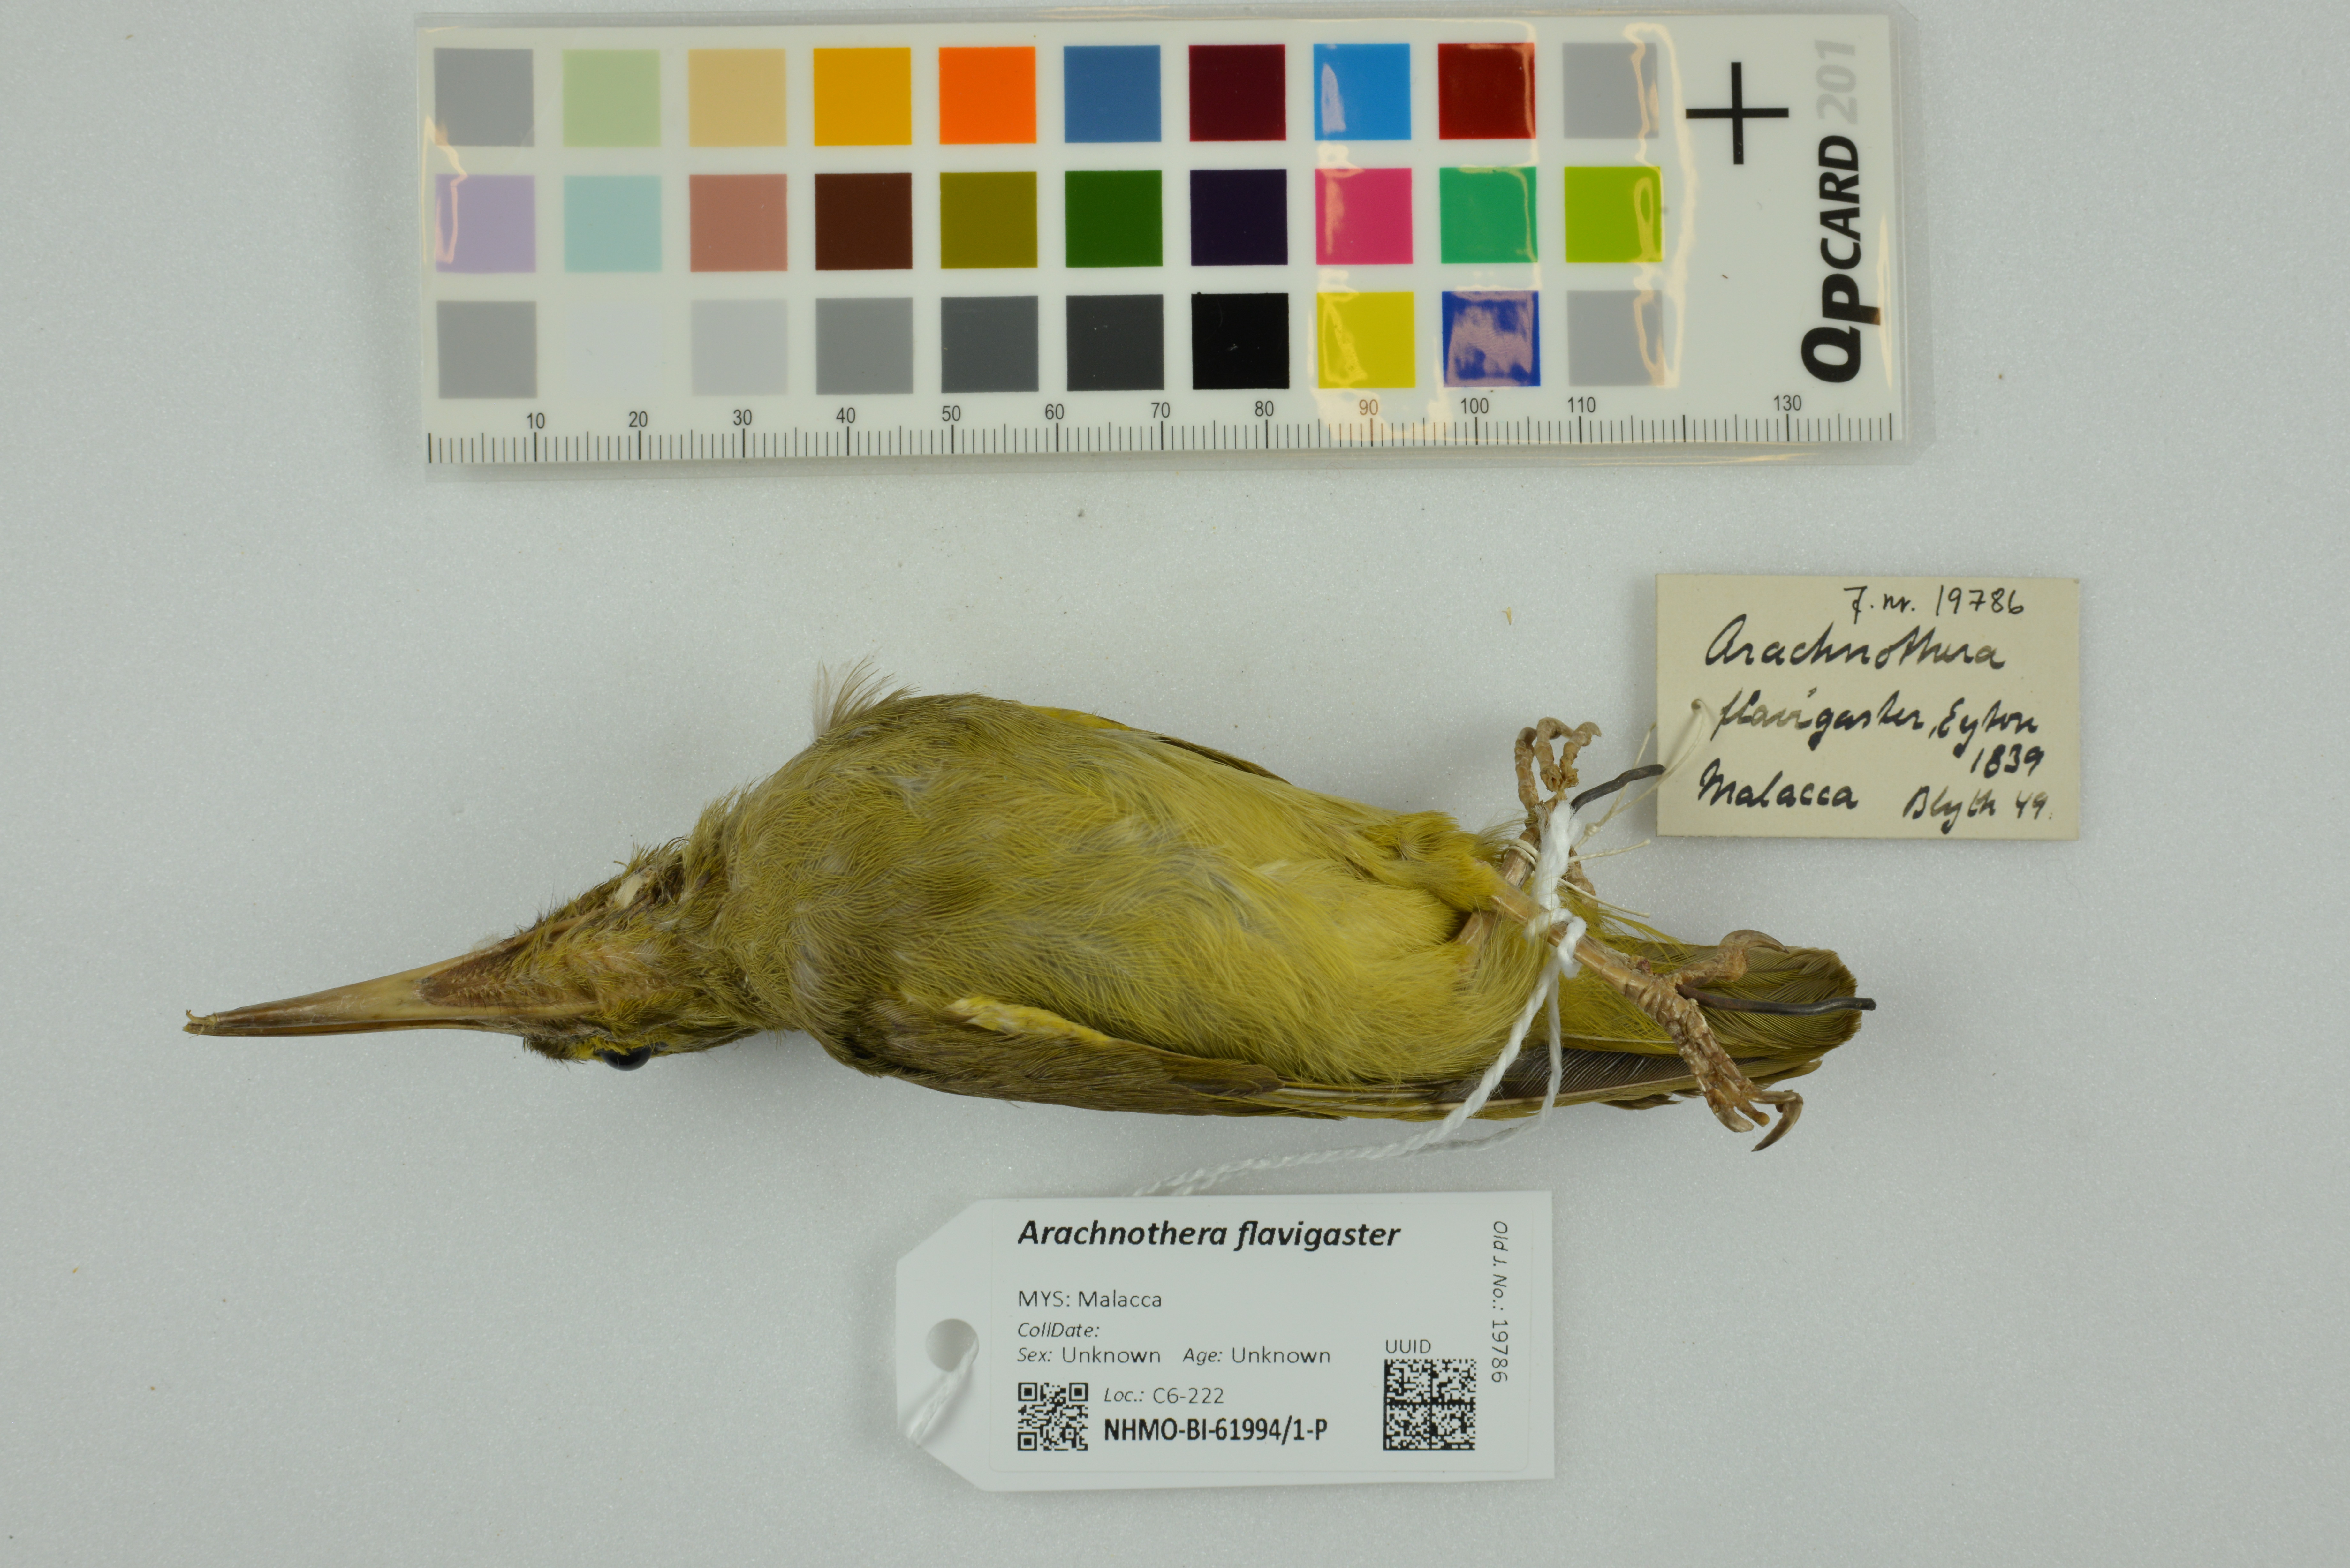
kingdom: Animalia
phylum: Chordata
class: Aves
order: Passeriformes
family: Nectariniidae
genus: Arachnothera
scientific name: Arachnothera flavigaster
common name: Spectacled spiderhunter
